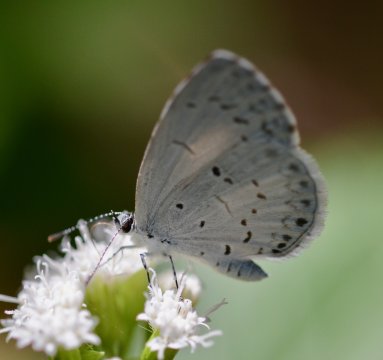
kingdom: Animalia
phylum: Arthropoda
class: Insecta
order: Lepidoptera
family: Lycaenidae
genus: Cyaniris
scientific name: Cyaniris neglecta
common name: Summer Azure
